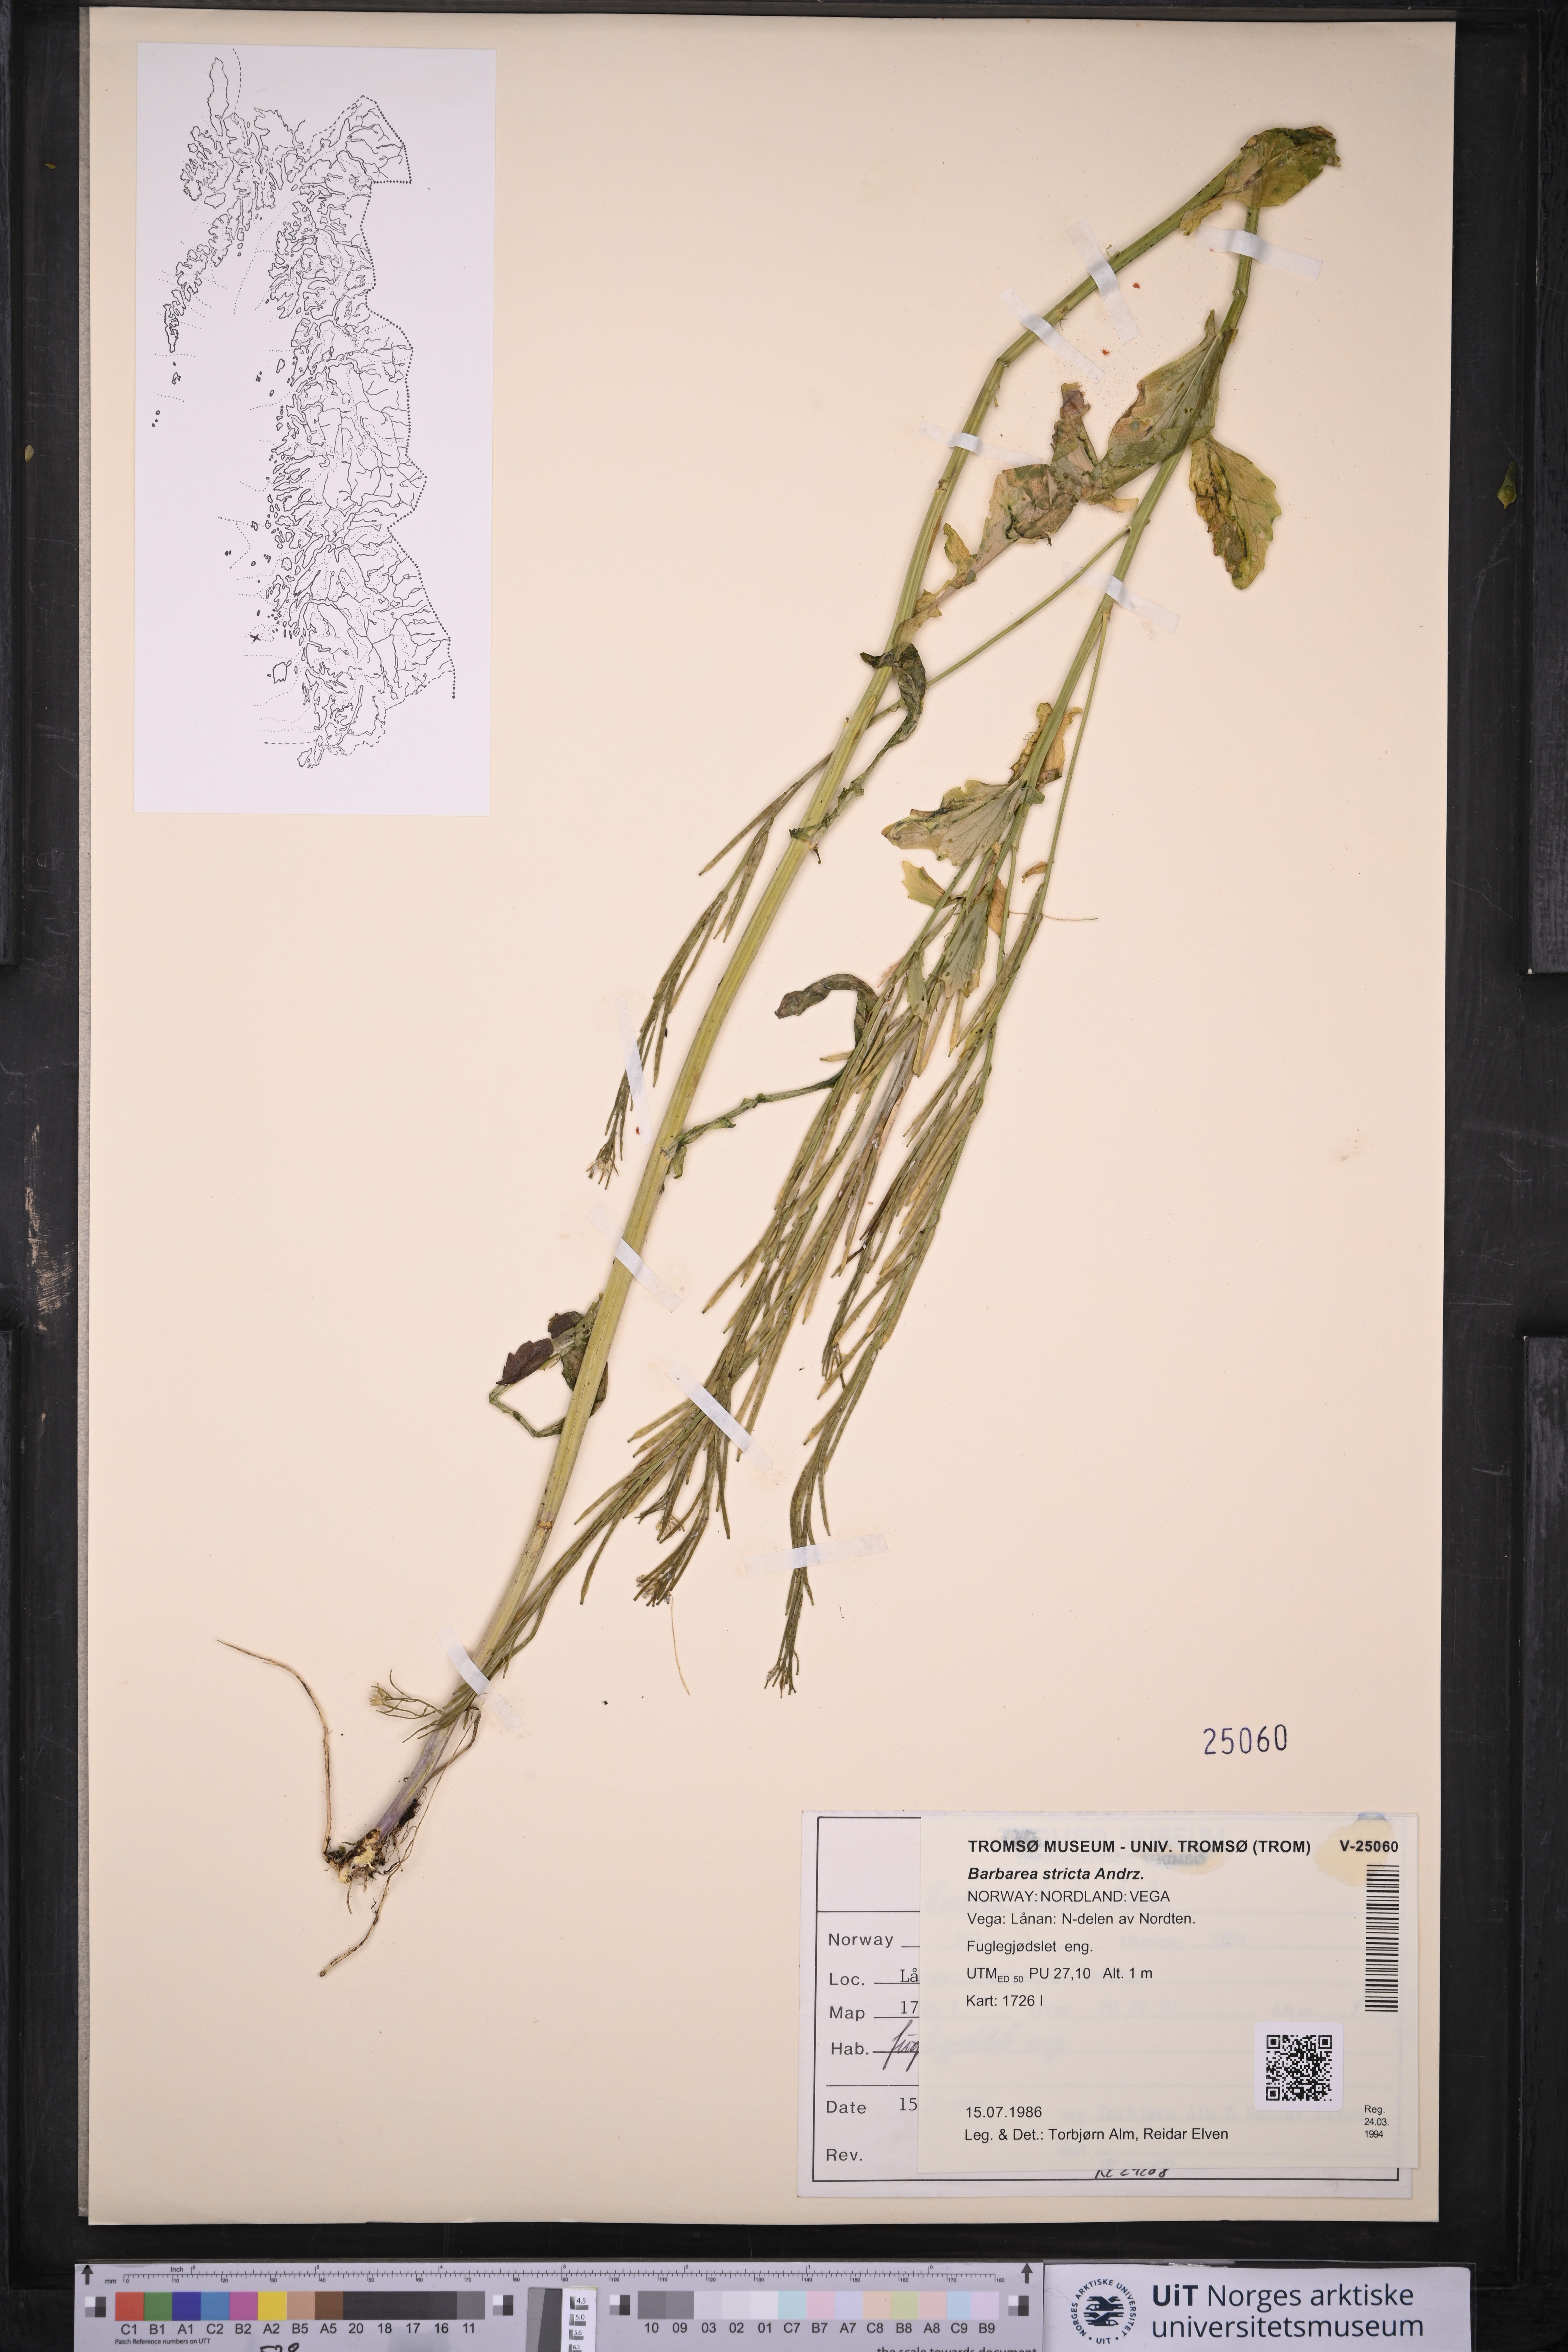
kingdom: Plantae
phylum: Tracheophyta
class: Magnoliopsida
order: Brassicales
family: Brassicaceae
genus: Barbarea
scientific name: Barbarea stricta
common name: Small-flowered winter-cress
